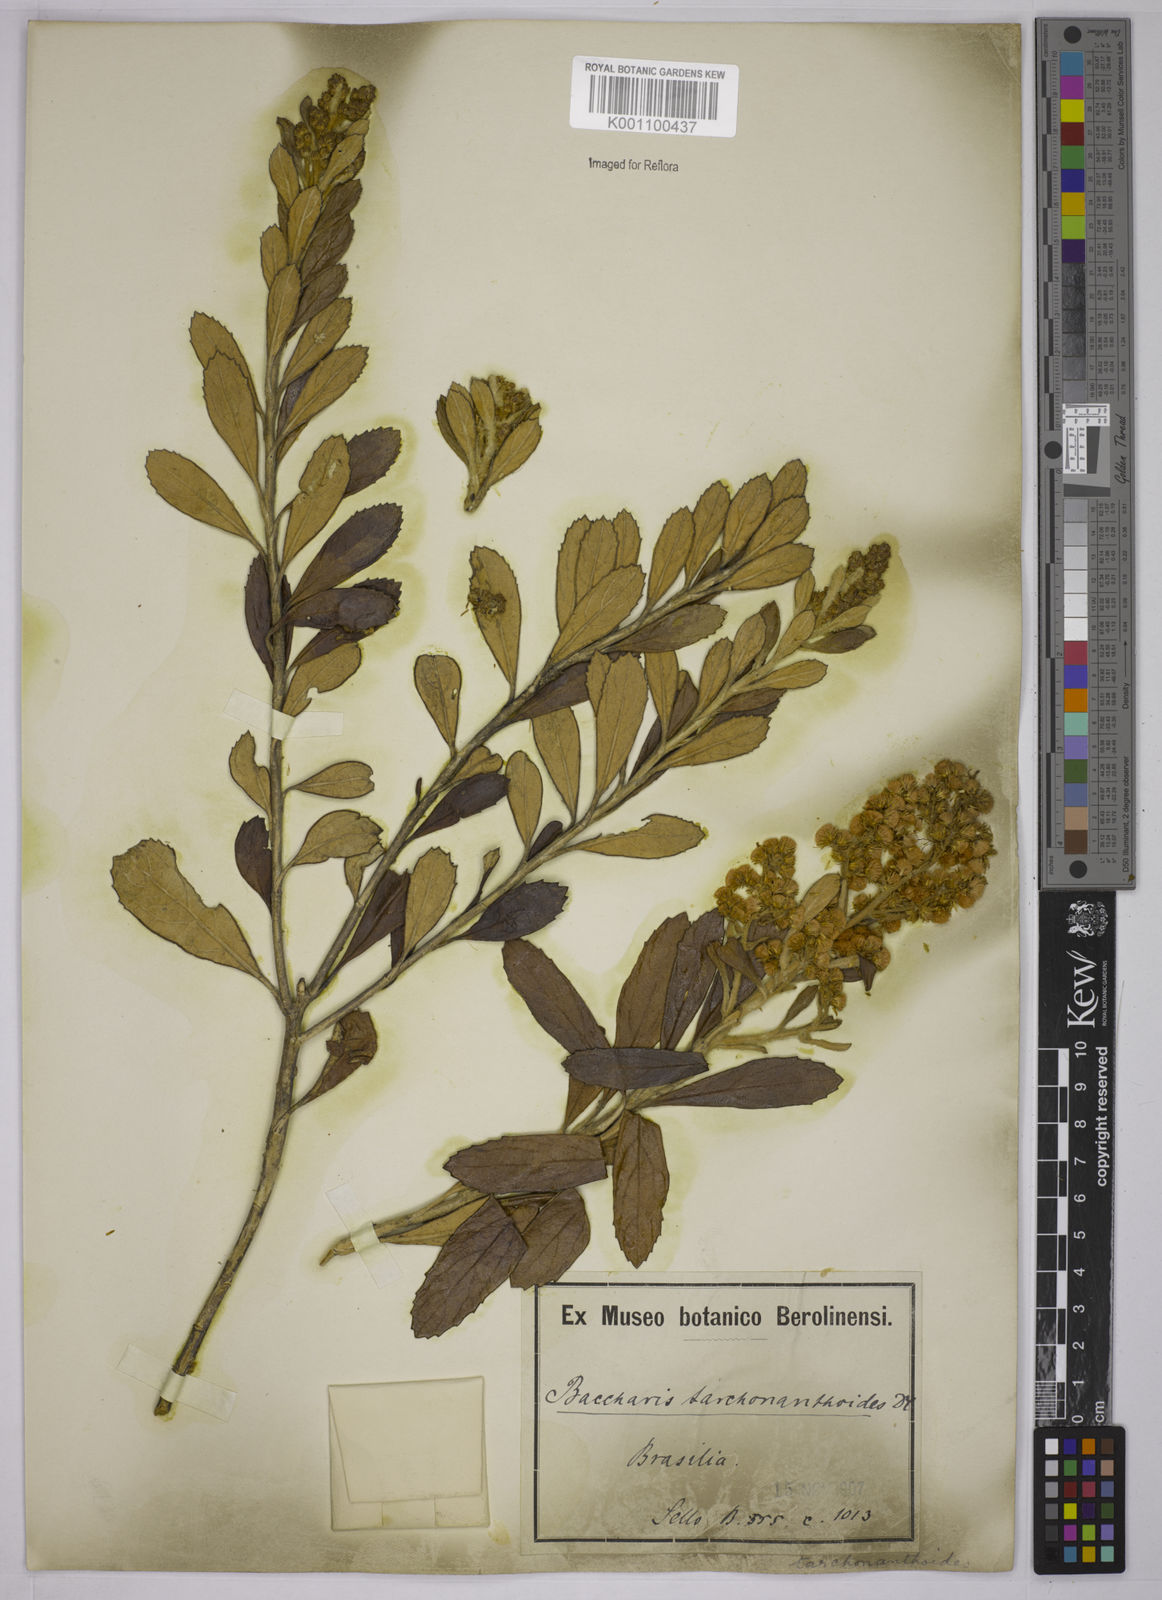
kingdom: Plantae
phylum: Tracheophyta
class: Magnoliopsida
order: Asterales
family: Asteraceae
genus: Baccharis
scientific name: Baccharis
